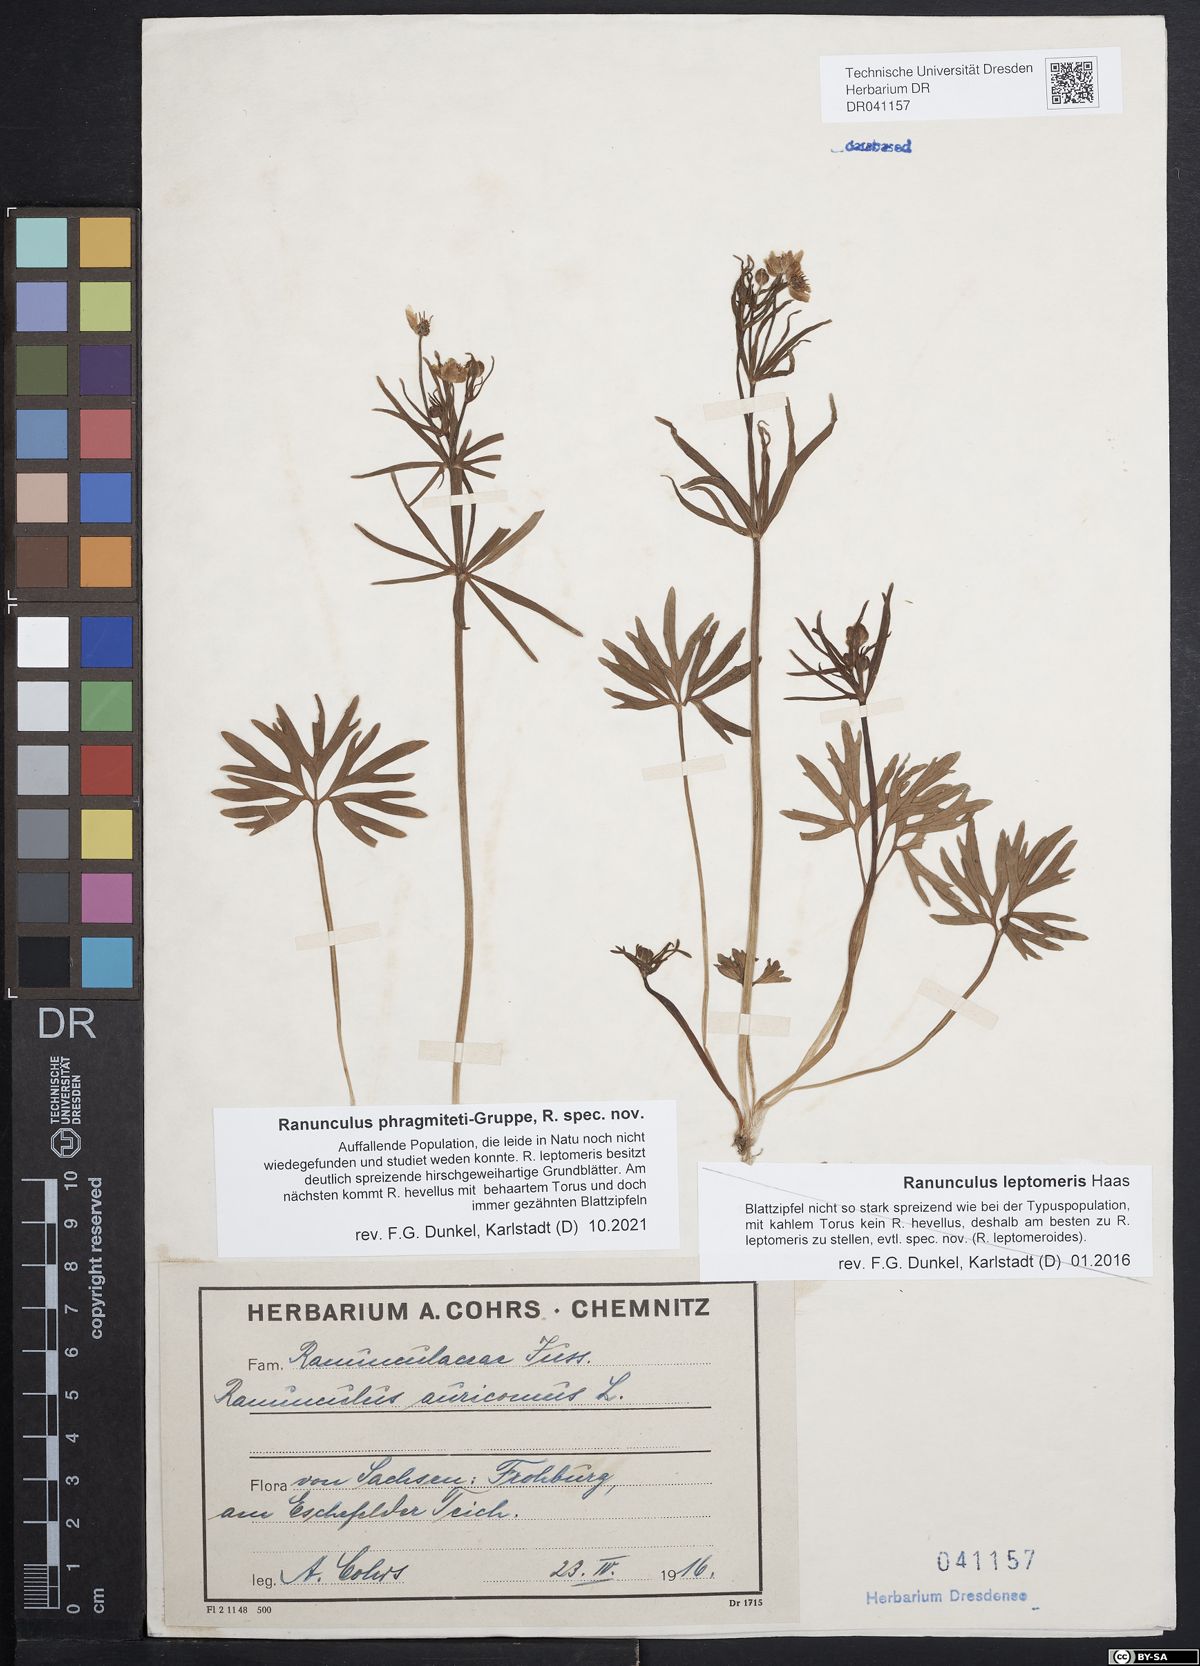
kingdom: Plantae
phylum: Tracheophyta
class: Magnoliopsida
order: Ranunculales
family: Ranunculaceae
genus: Ranunculus
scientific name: Ranunculus phragmiteti
